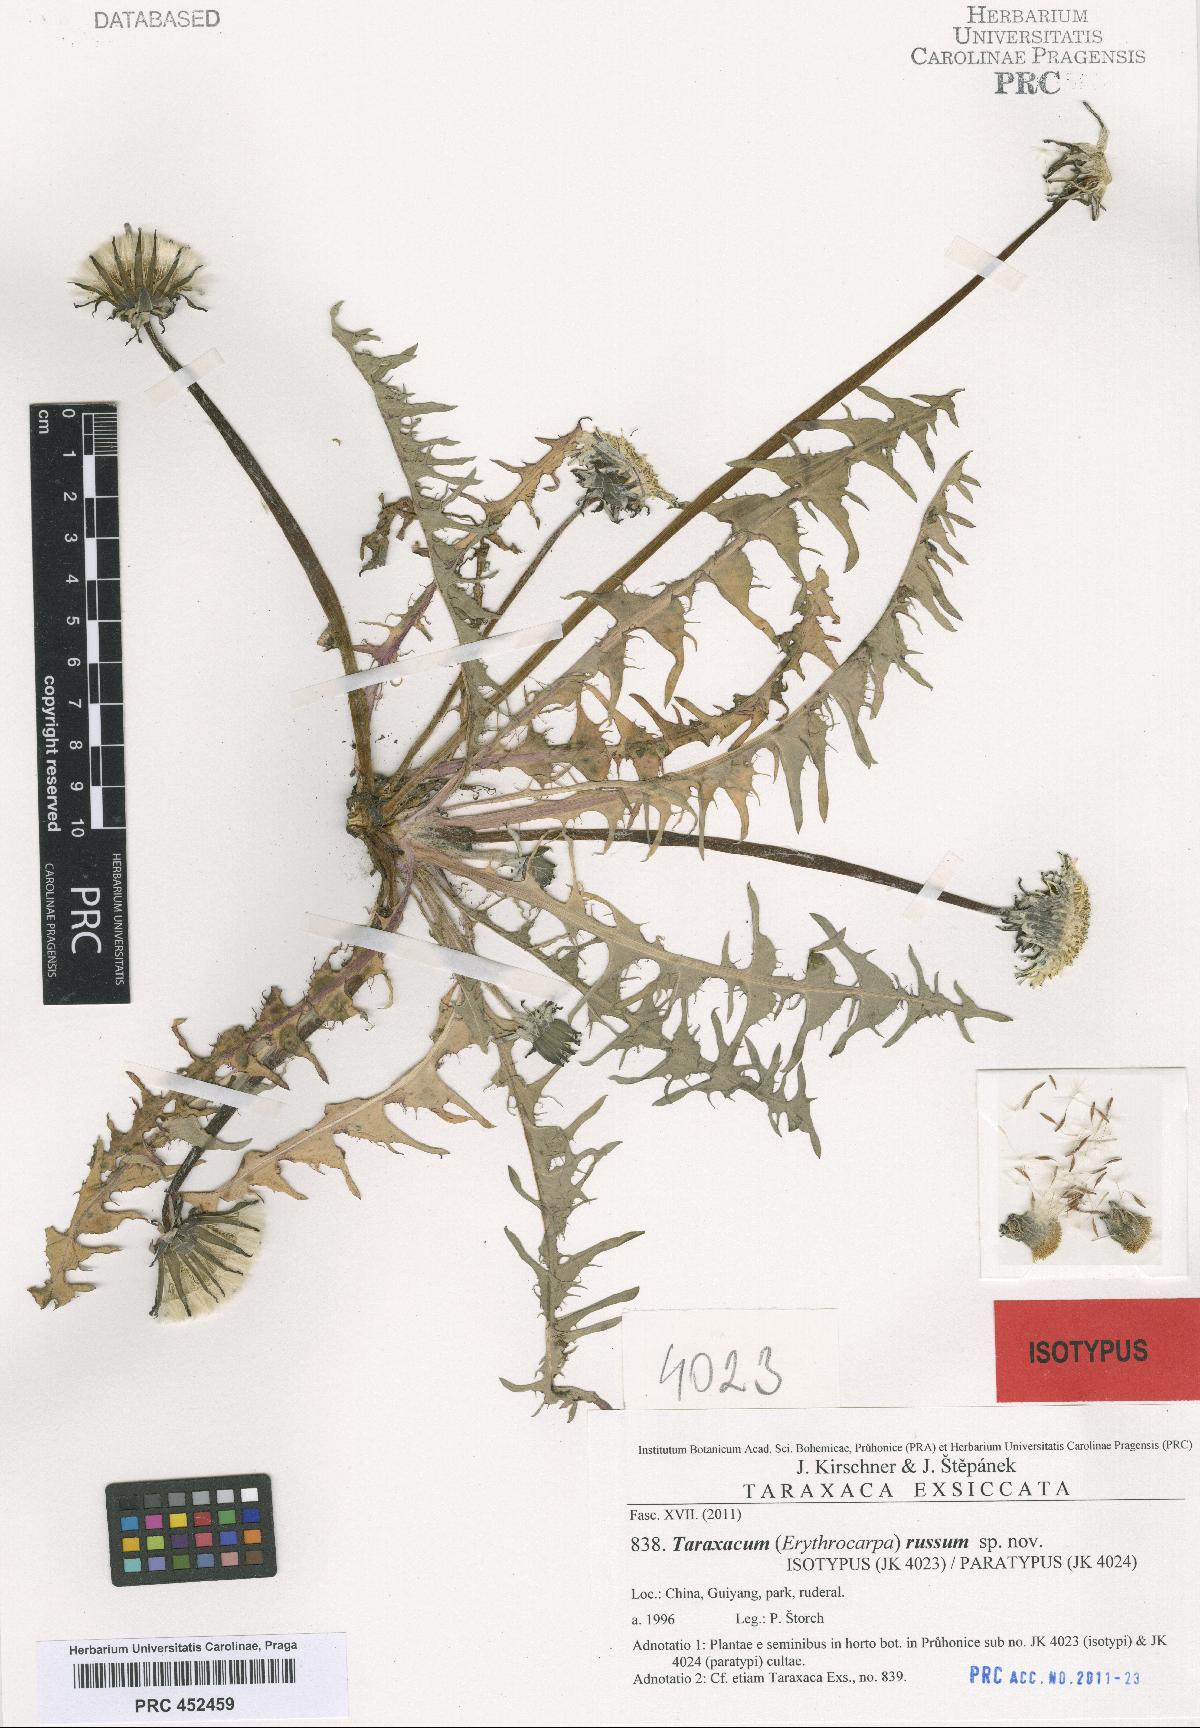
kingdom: Plantae
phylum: Tracheophyta
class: Magnoliopsida
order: Asterales
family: Asteraceae
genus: Taraxacum
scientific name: Taraxacum russum
